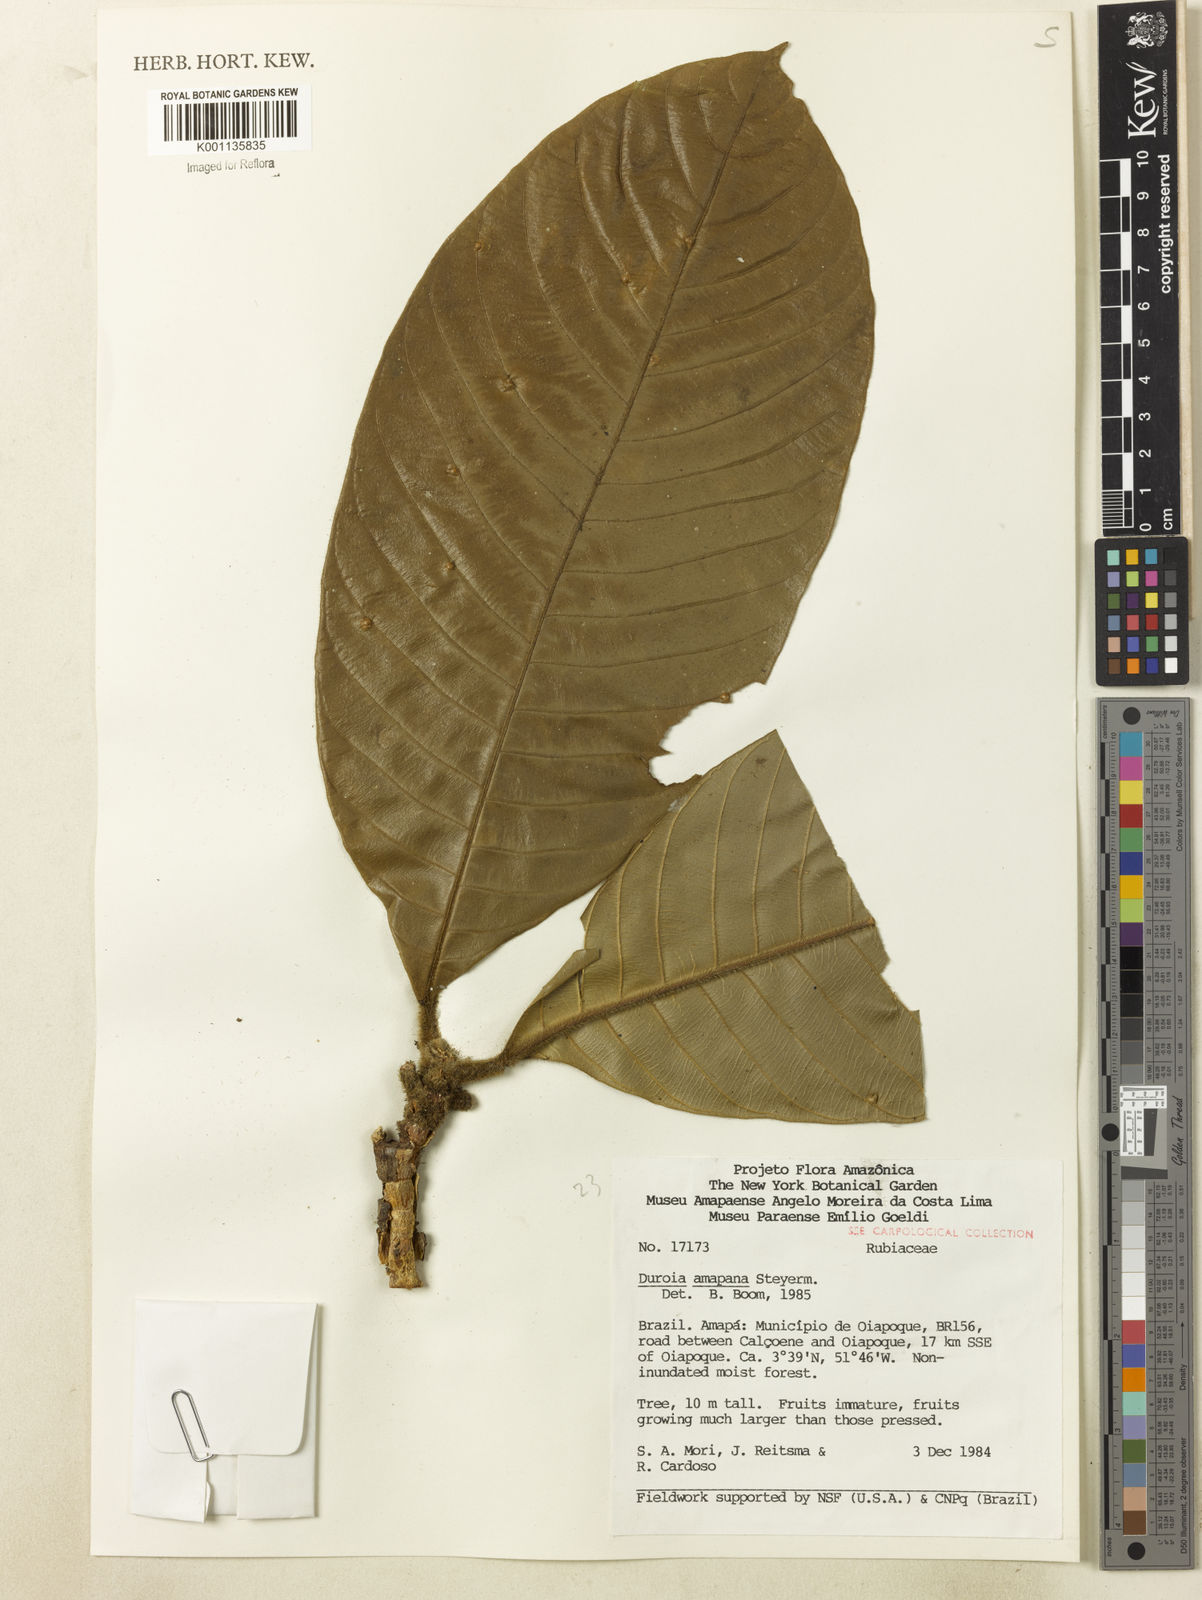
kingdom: Plantae
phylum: Tracheophyta
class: Magnoliopsida
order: Gentianales
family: Rubiaceae
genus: Duroia
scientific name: Duroia amapana
